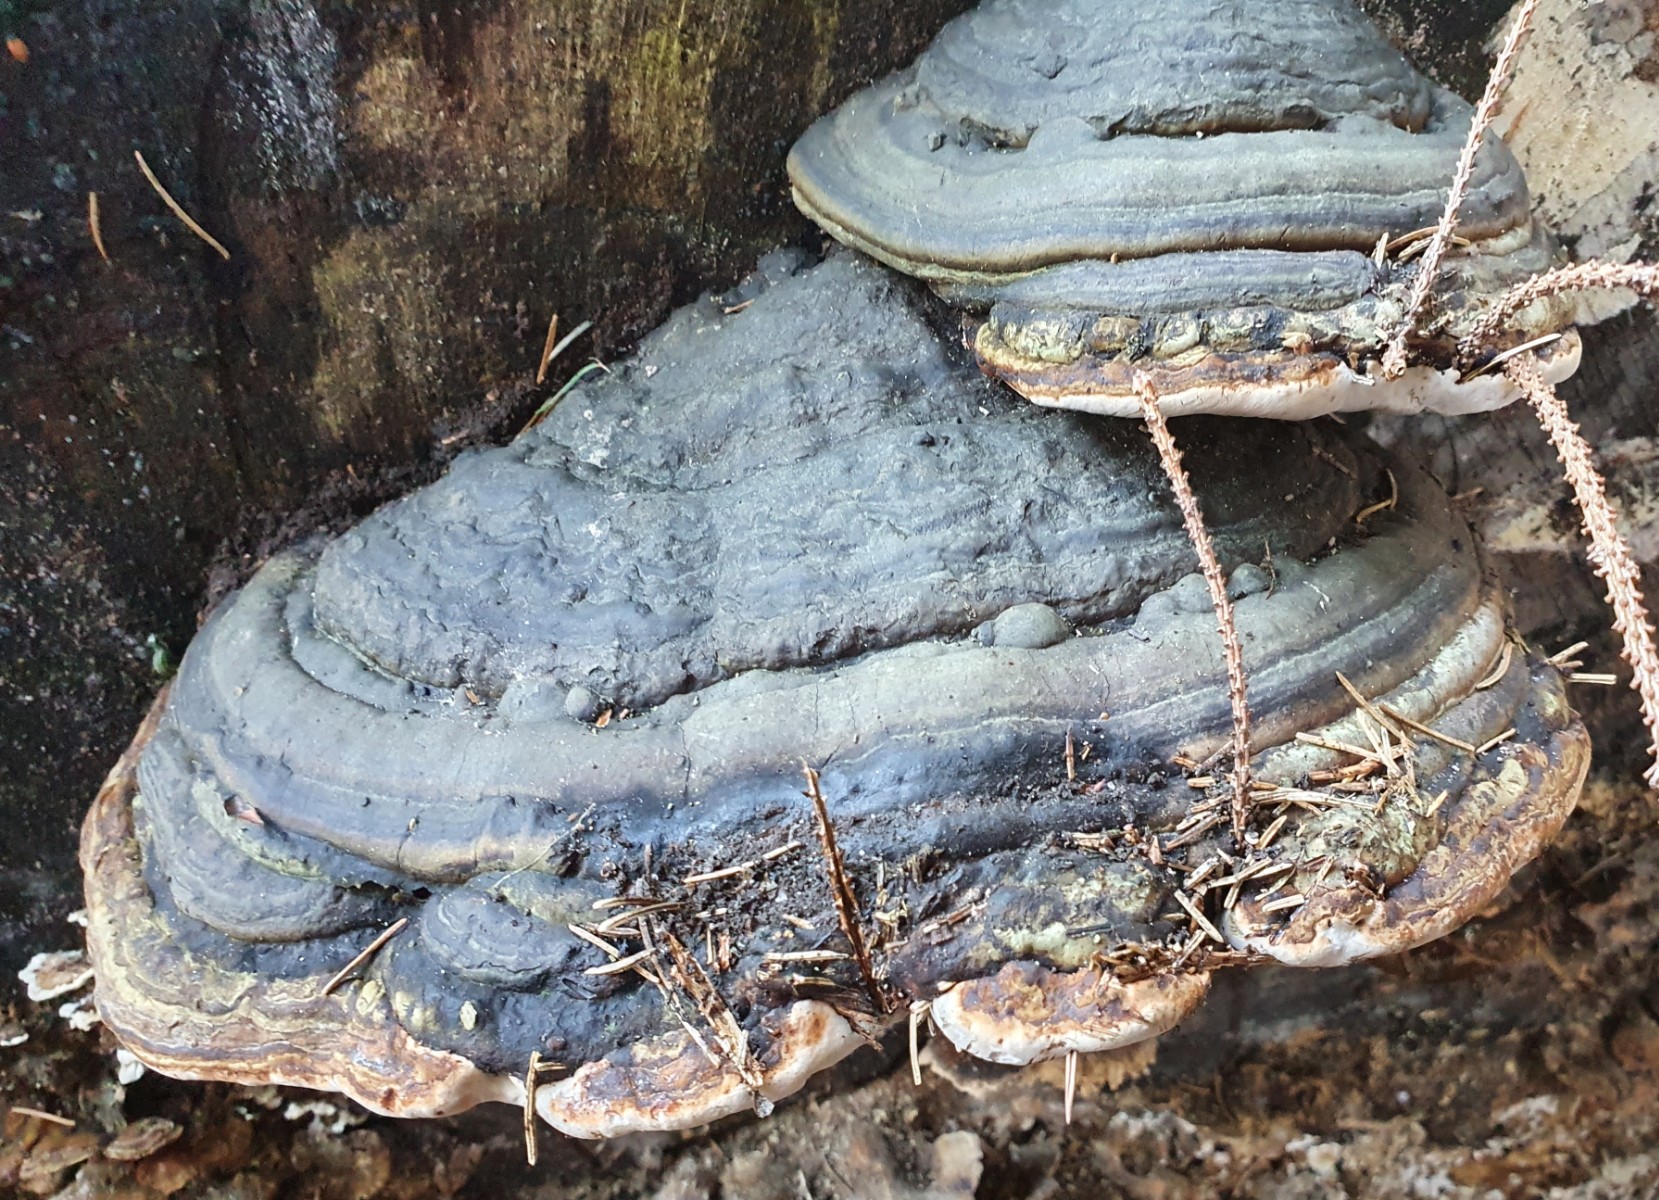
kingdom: Fungi
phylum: Basidiomycota
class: Agaricomycetes
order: Polyporales
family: Polyporaceae
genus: Fomes
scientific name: Fomes fomentarius
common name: tøndersvamp
